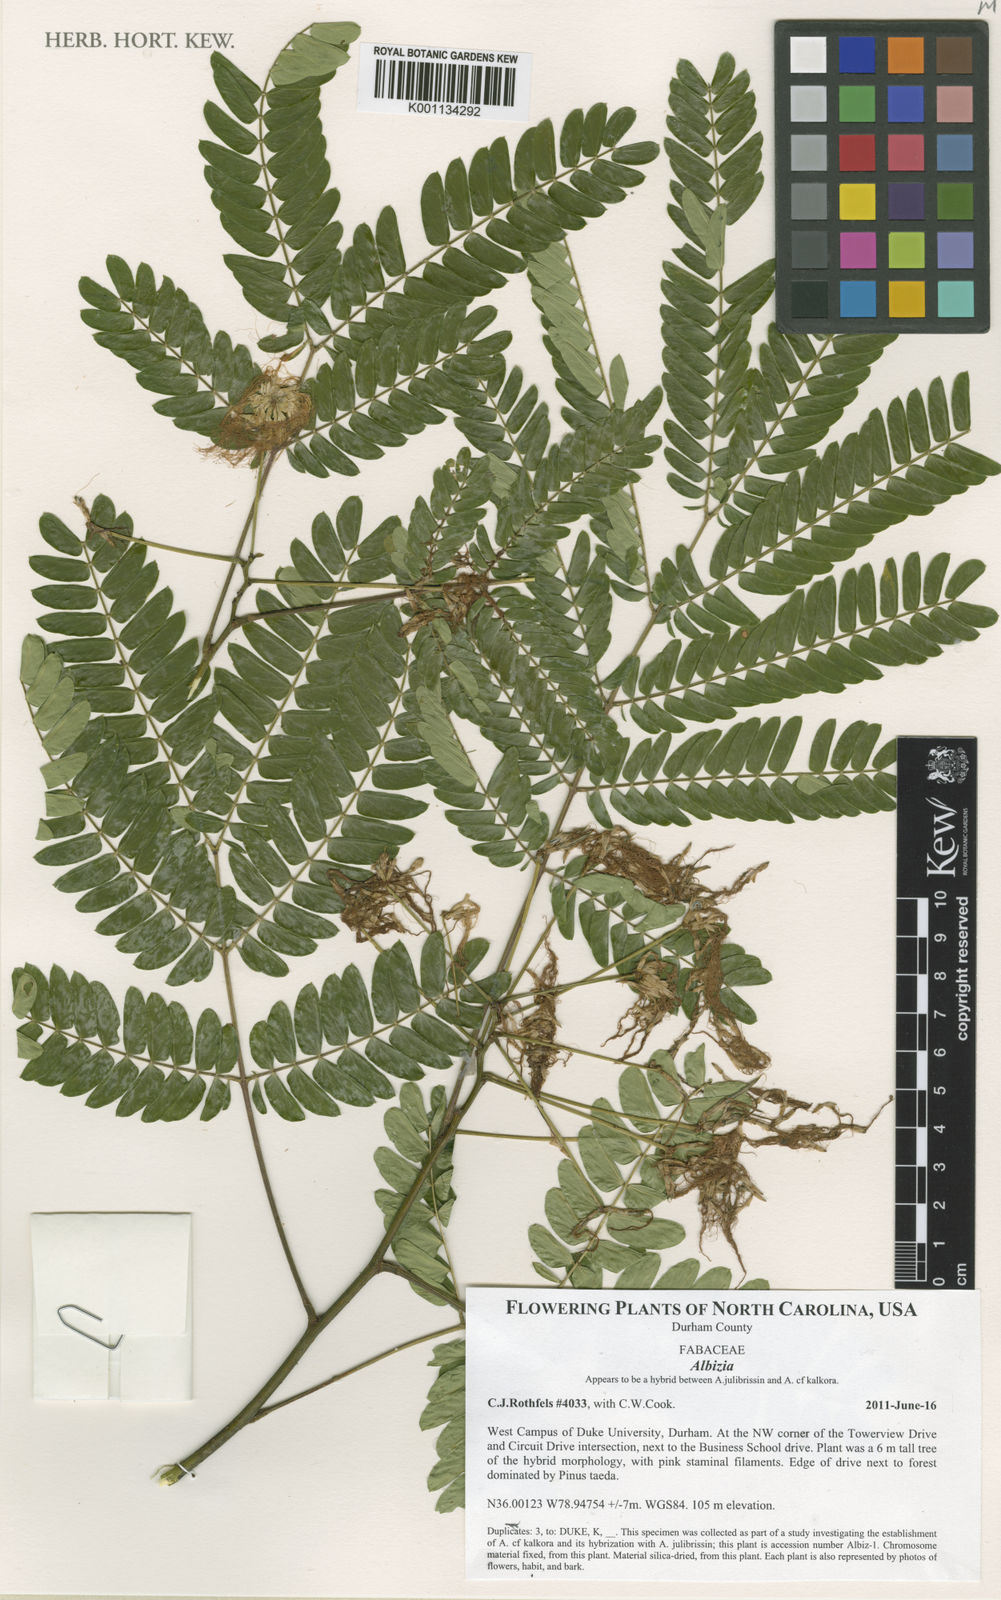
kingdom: Plantae
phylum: Tracheophyta
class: Magnoliopsida
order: Fabales
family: Fabaceae
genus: Albizia
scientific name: Albizia
